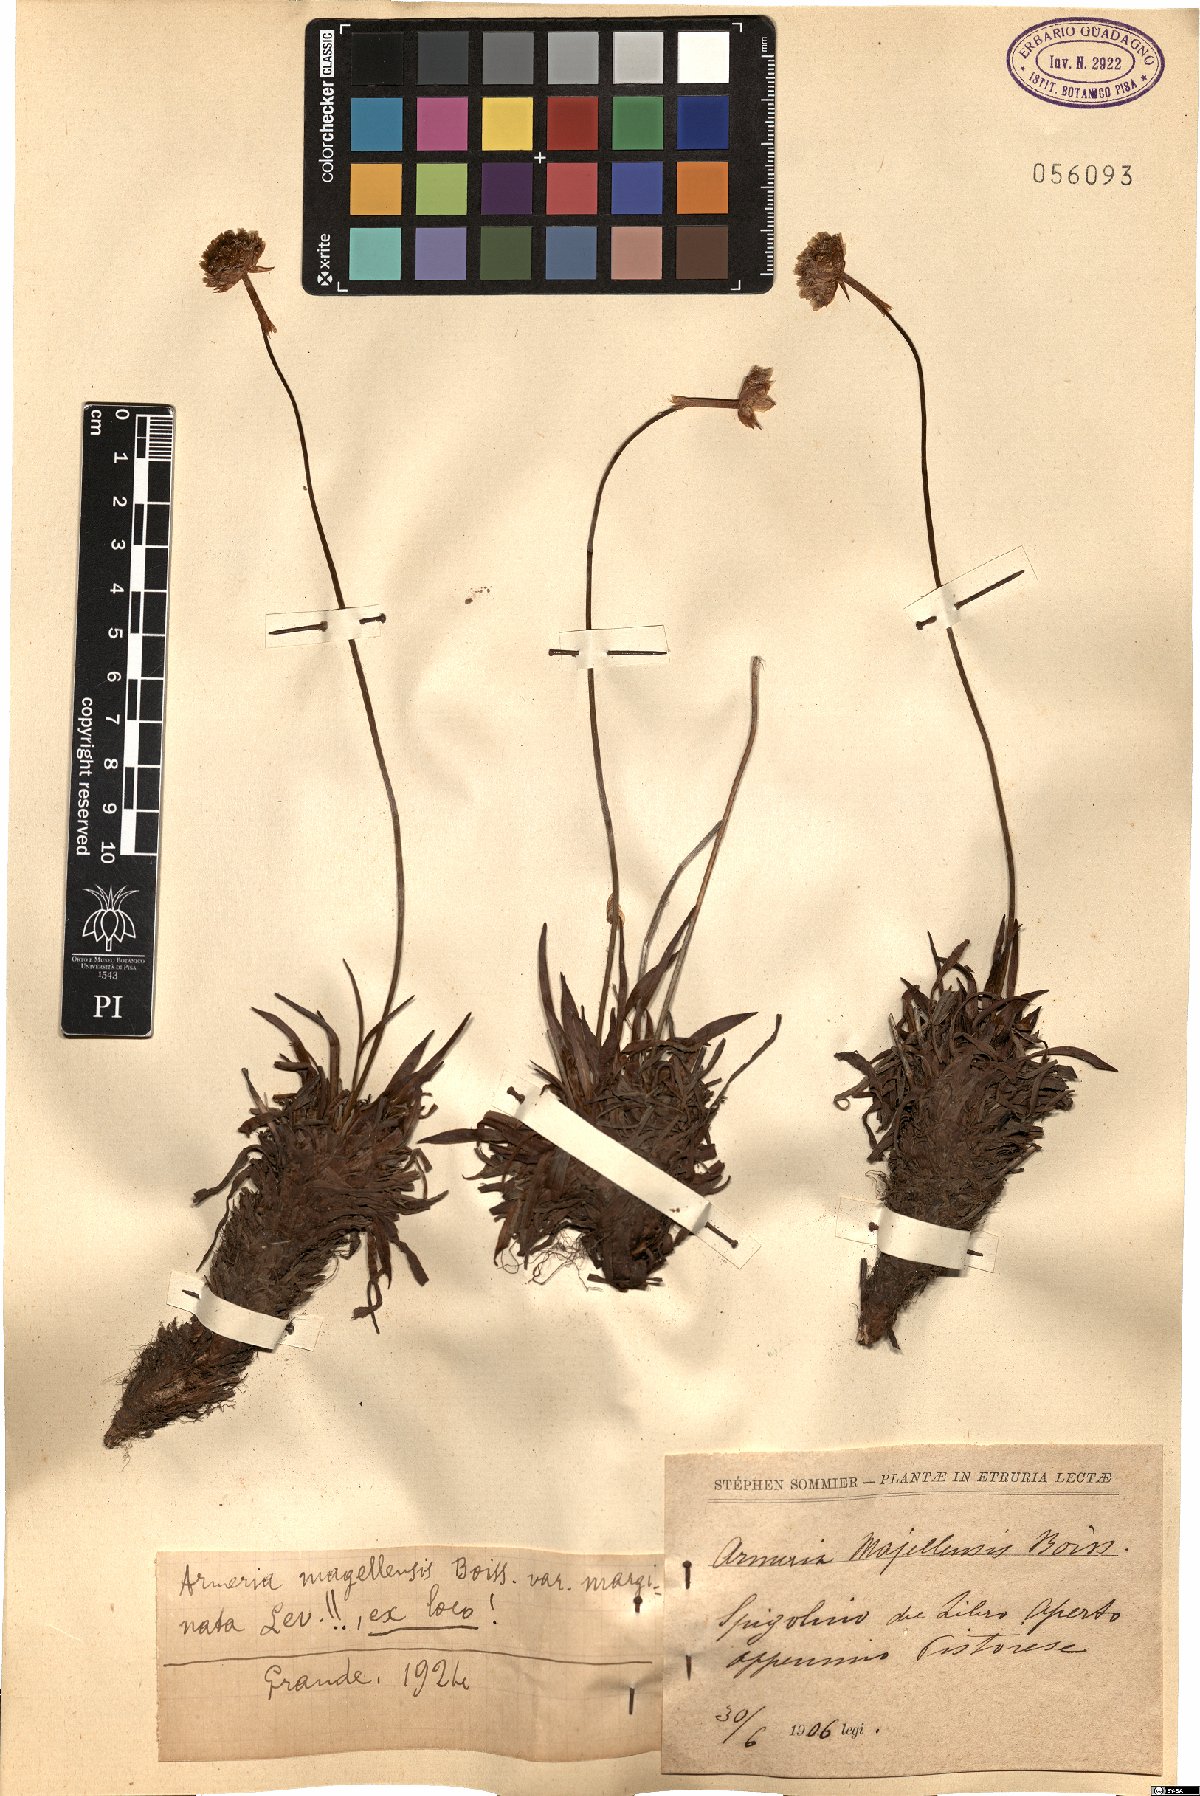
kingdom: Plantae
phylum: Tracheophyta
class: Magnoliopsida
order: Caryophyllales
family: Plumbaginaceae
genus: Armeria
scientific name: Armeria arenaria
